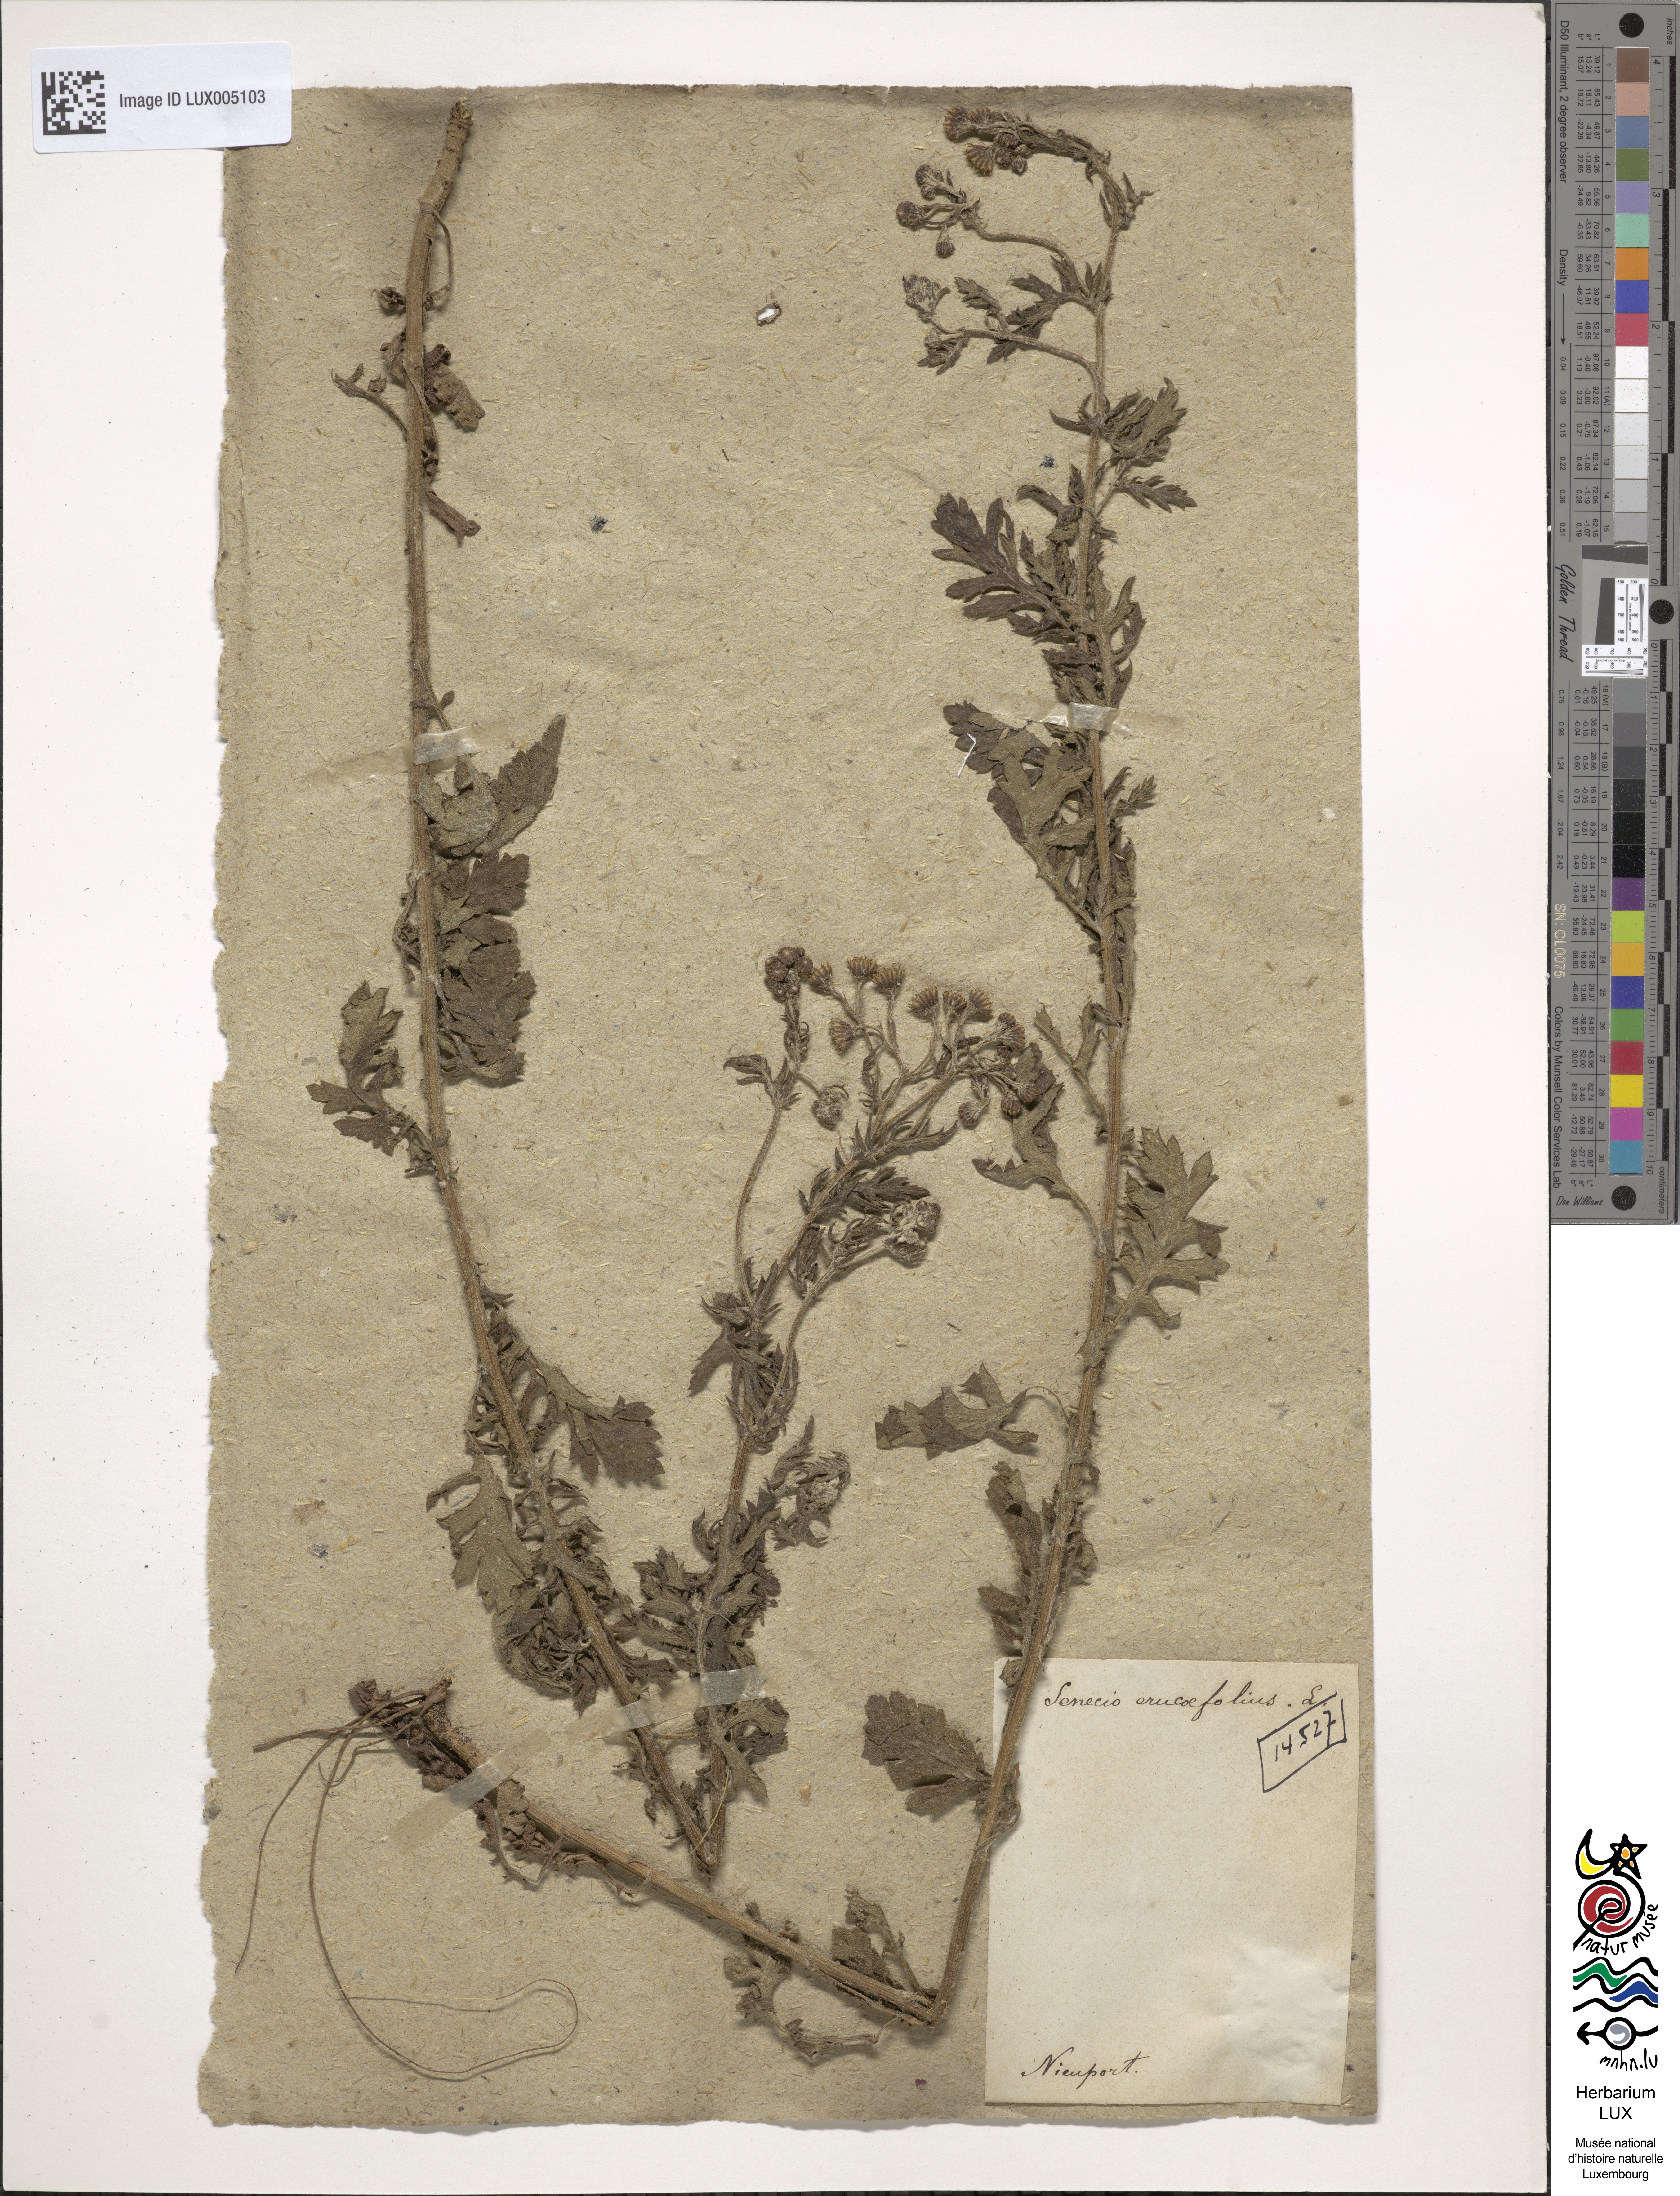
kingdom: Plantae
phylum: Tracheophyta
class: Magnoliopsida
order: Asterales
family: Asteraceae
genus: Jacobaea
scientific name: Jacobaea erucifolia
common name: Hoary ragwort
